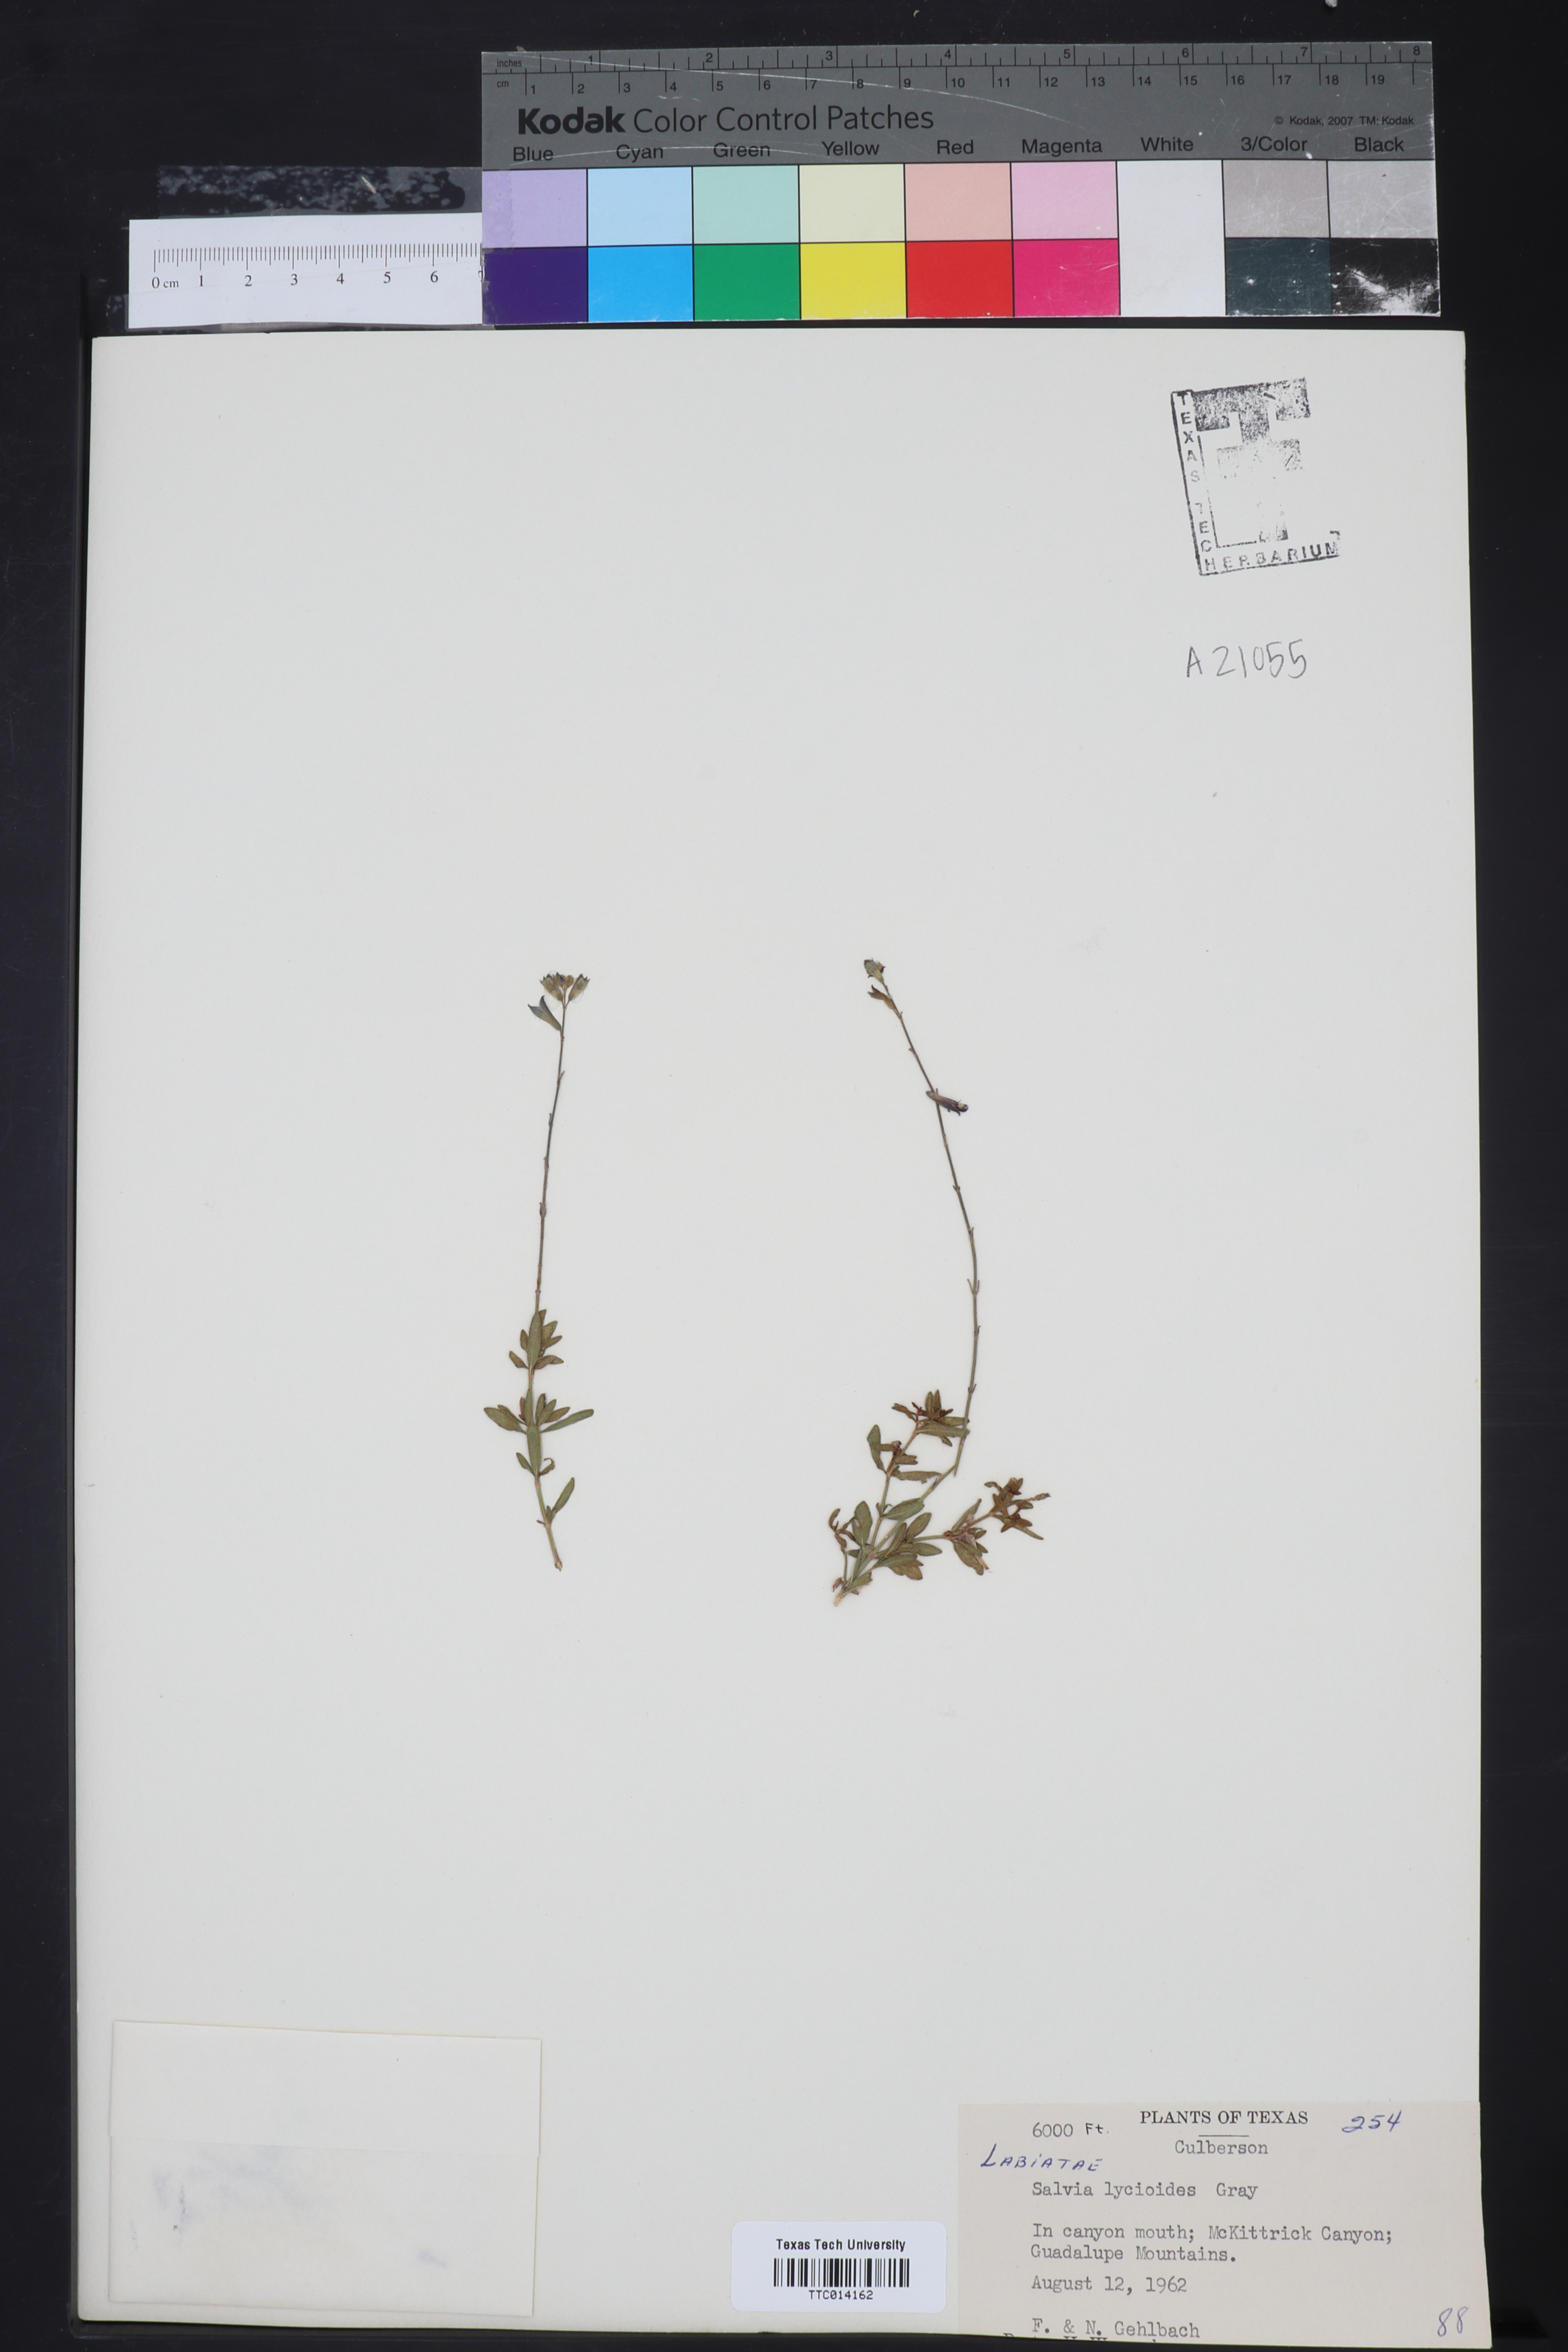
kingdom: Plantae
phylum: Tracheophyta
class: Magnoliopsida
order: Lamiales
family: Lamiaceae
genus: Salvia
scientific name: Salvia lycioides
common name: Canyon sage
